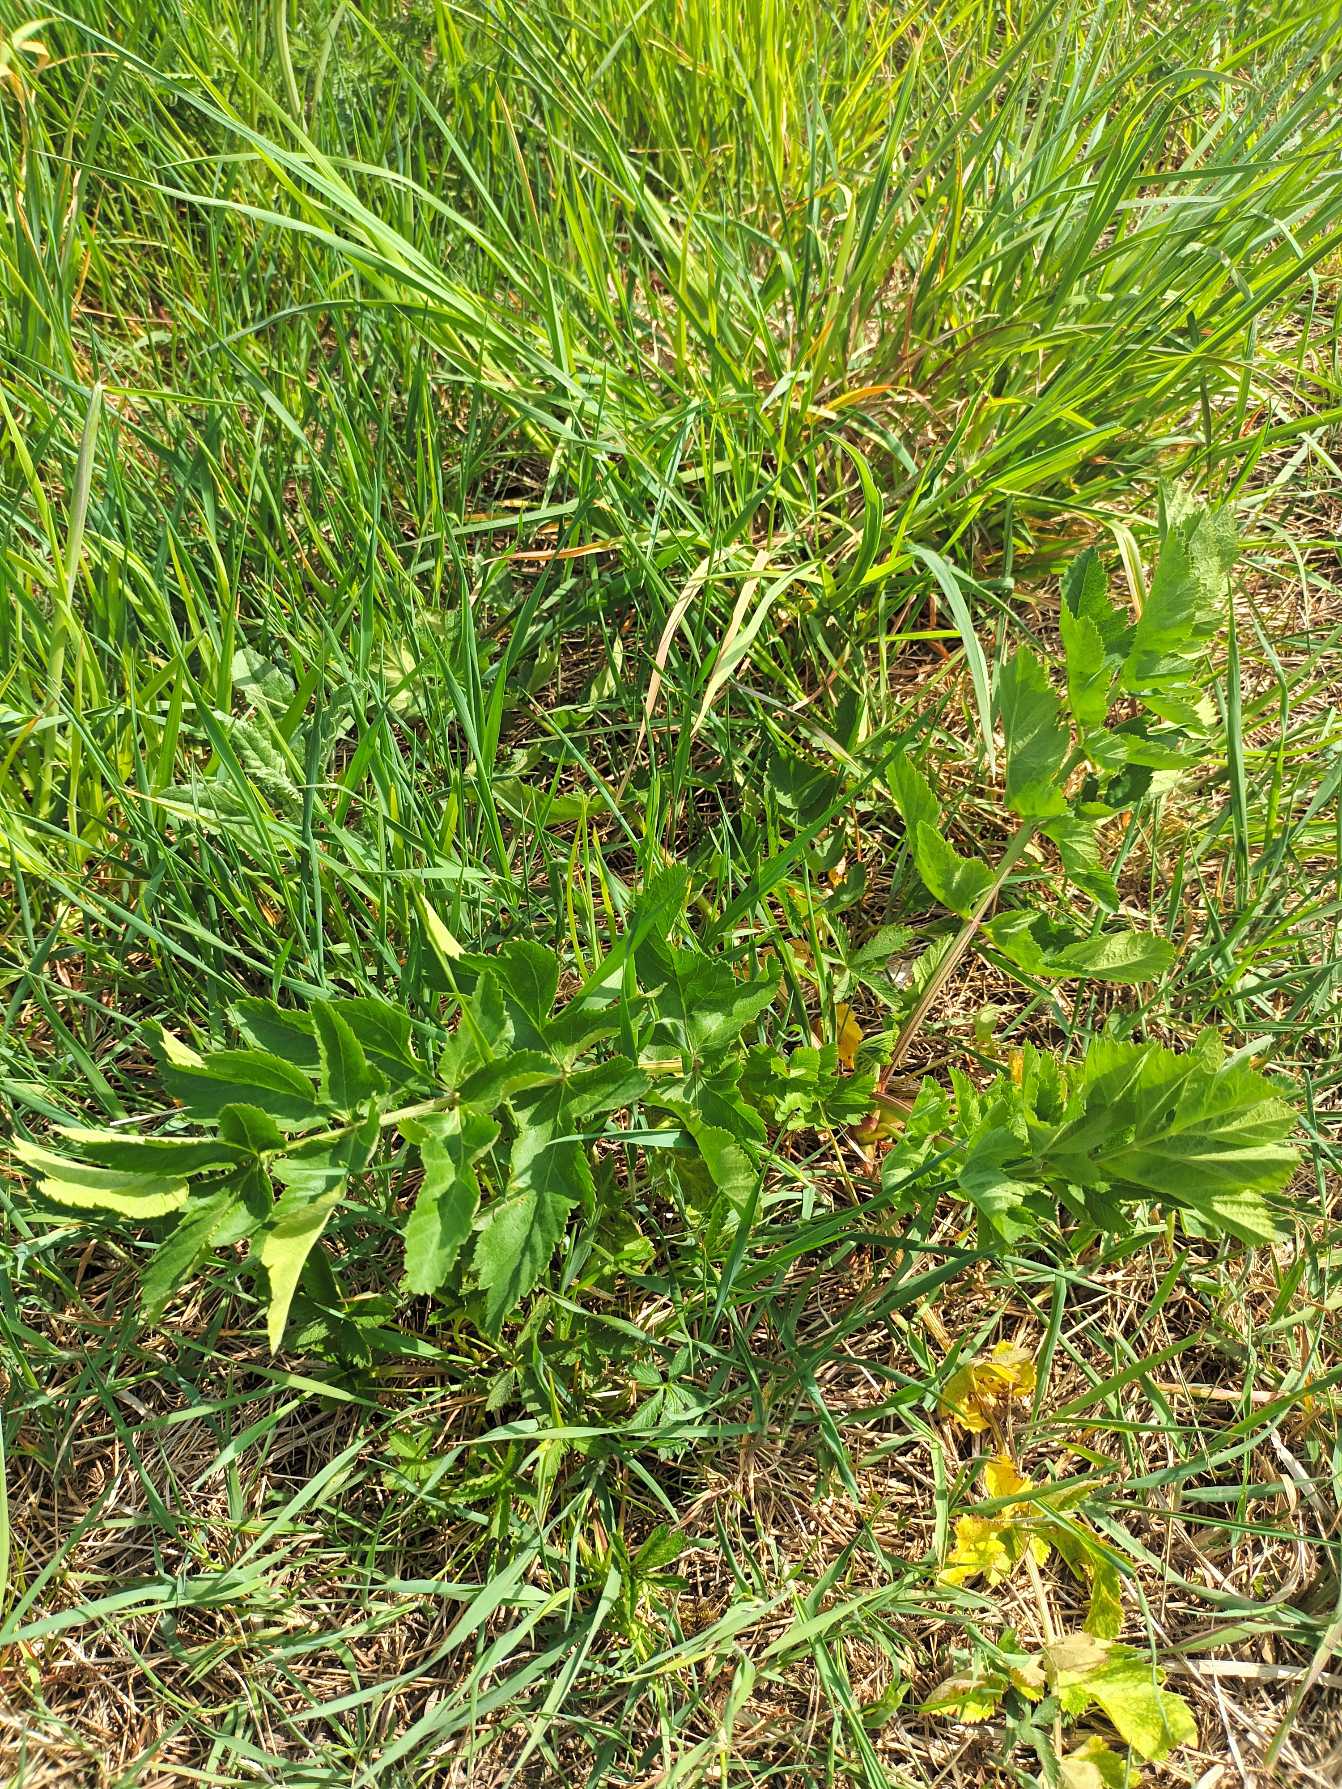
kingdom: Plantae
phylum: Tracheophyta
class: Magnoliopsida
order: Apiales
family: Apiaceae
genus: Pastinaca
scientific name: Pastinaca sativa
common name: Pastinak
